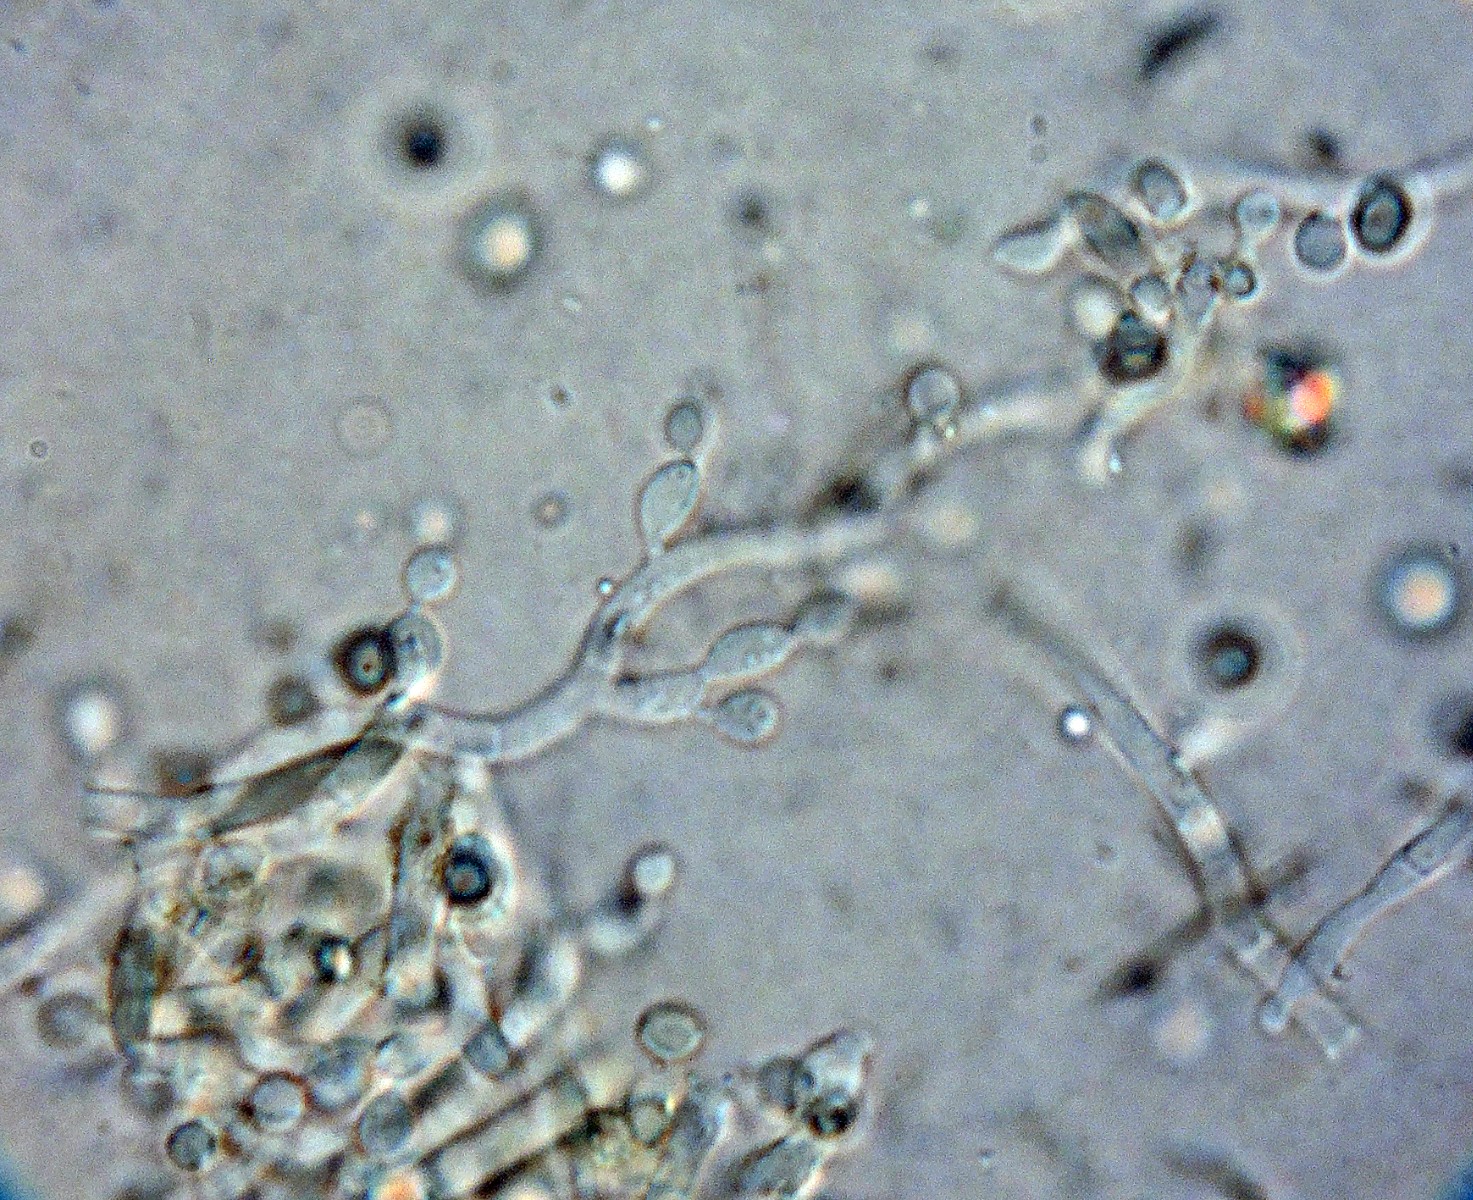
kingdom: Fungi
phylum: Ascomycota
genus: Mycosylva
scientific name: Mycosylva clarkii
